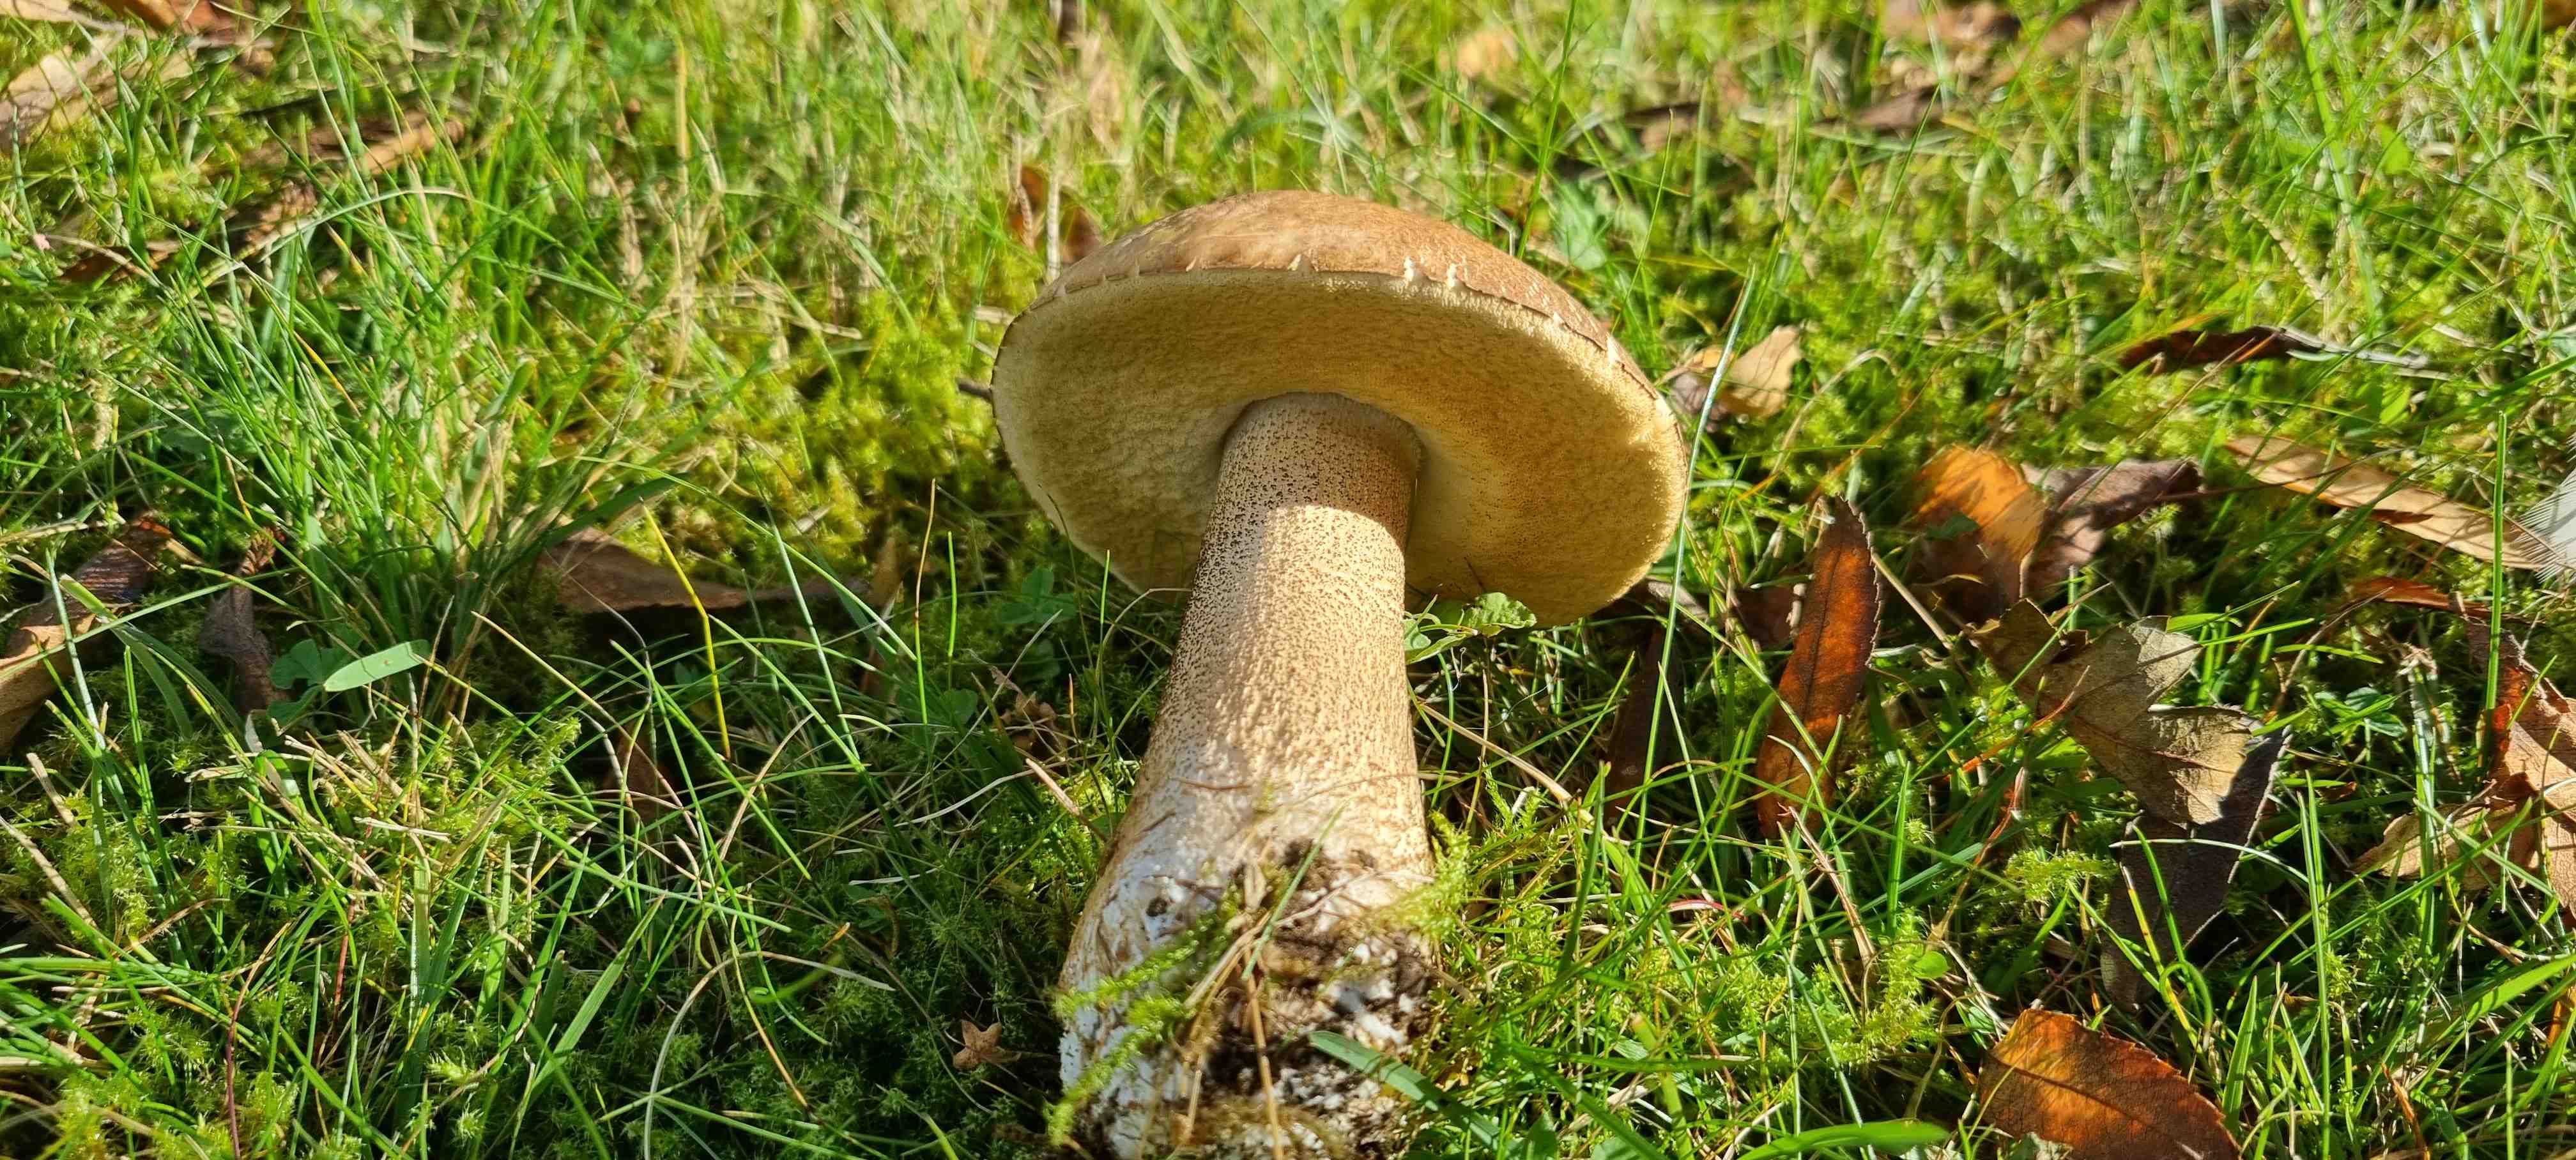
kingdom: Fungi
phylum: Basidiomycota
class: Agaricomycetes
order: Boletales
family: Boletaceae
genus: Leccinum
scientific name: Leccinum scabrum
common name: brun skælrørhat
